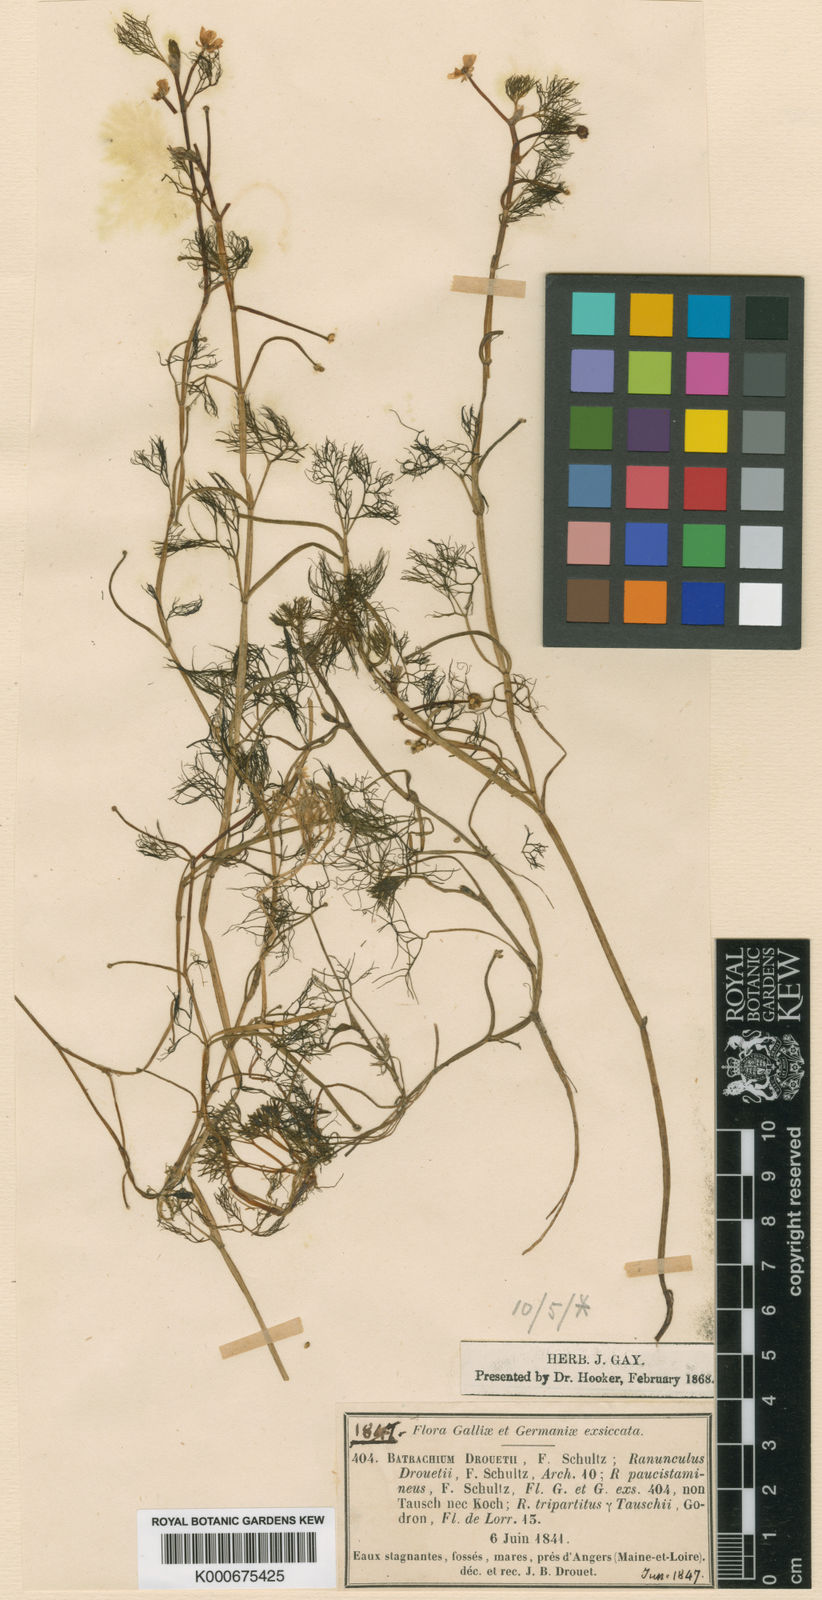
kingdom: Plantae
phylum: Tracheophyta
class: Magnoliopsida
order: Ranunculales
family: Ranunculaceae
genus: Ranunculus
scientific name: Ranunculus
